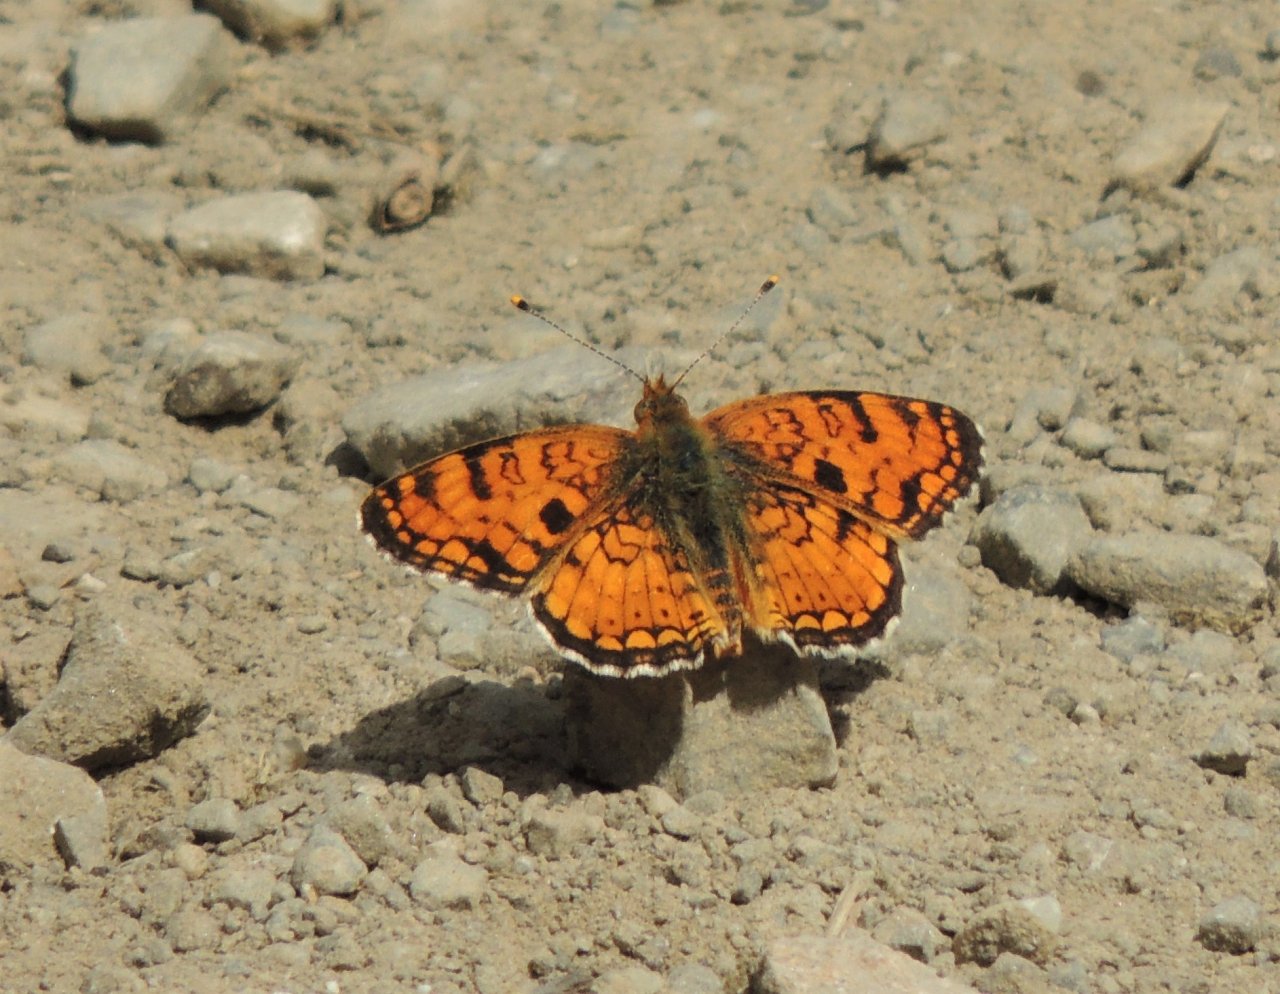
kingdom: Animalia
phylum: Arthropoda
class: Insecta
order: Lepidoptera
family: Pieridae
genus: Pontia
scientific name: Pontia occidentalis
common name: Western White
